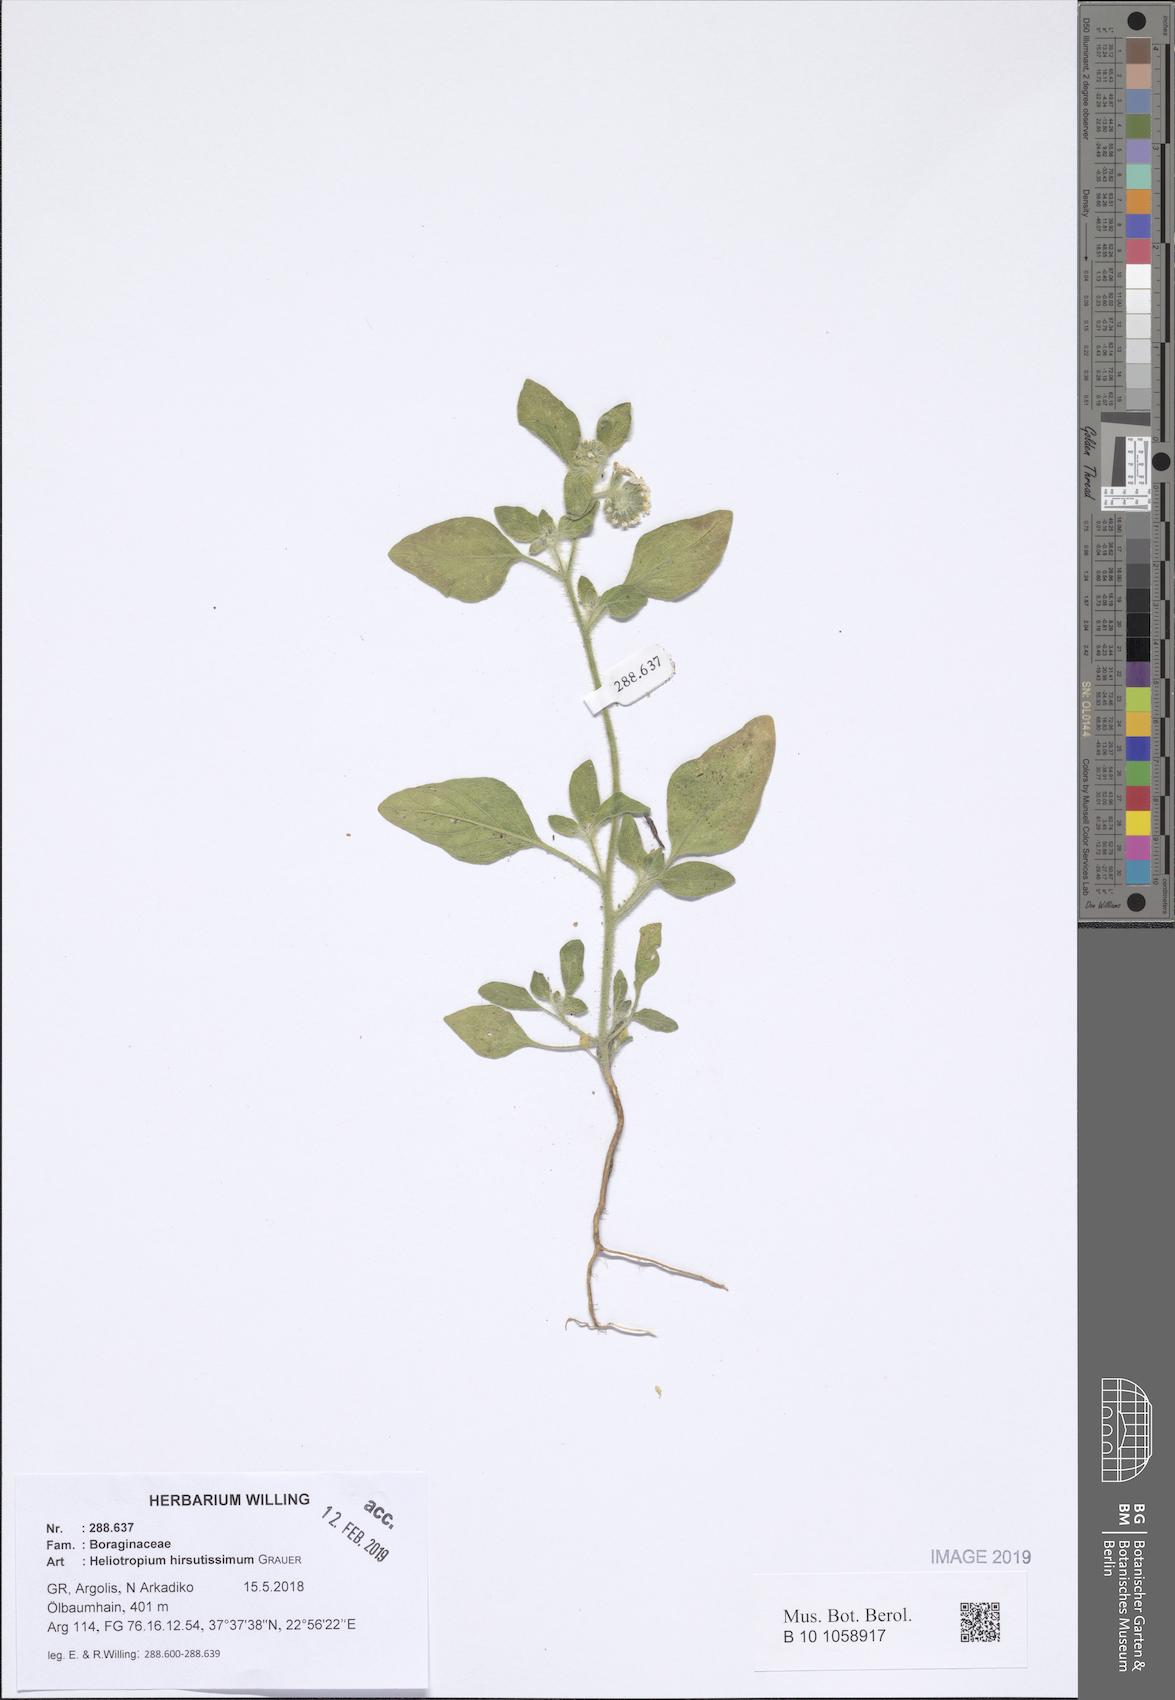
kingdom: Plantae
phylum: Tracheophyta
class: Magnoliopsida
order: Boraginales
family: Heliotropiaceae
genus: Heliotropium
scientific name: Heliotropium hirsutissimum
